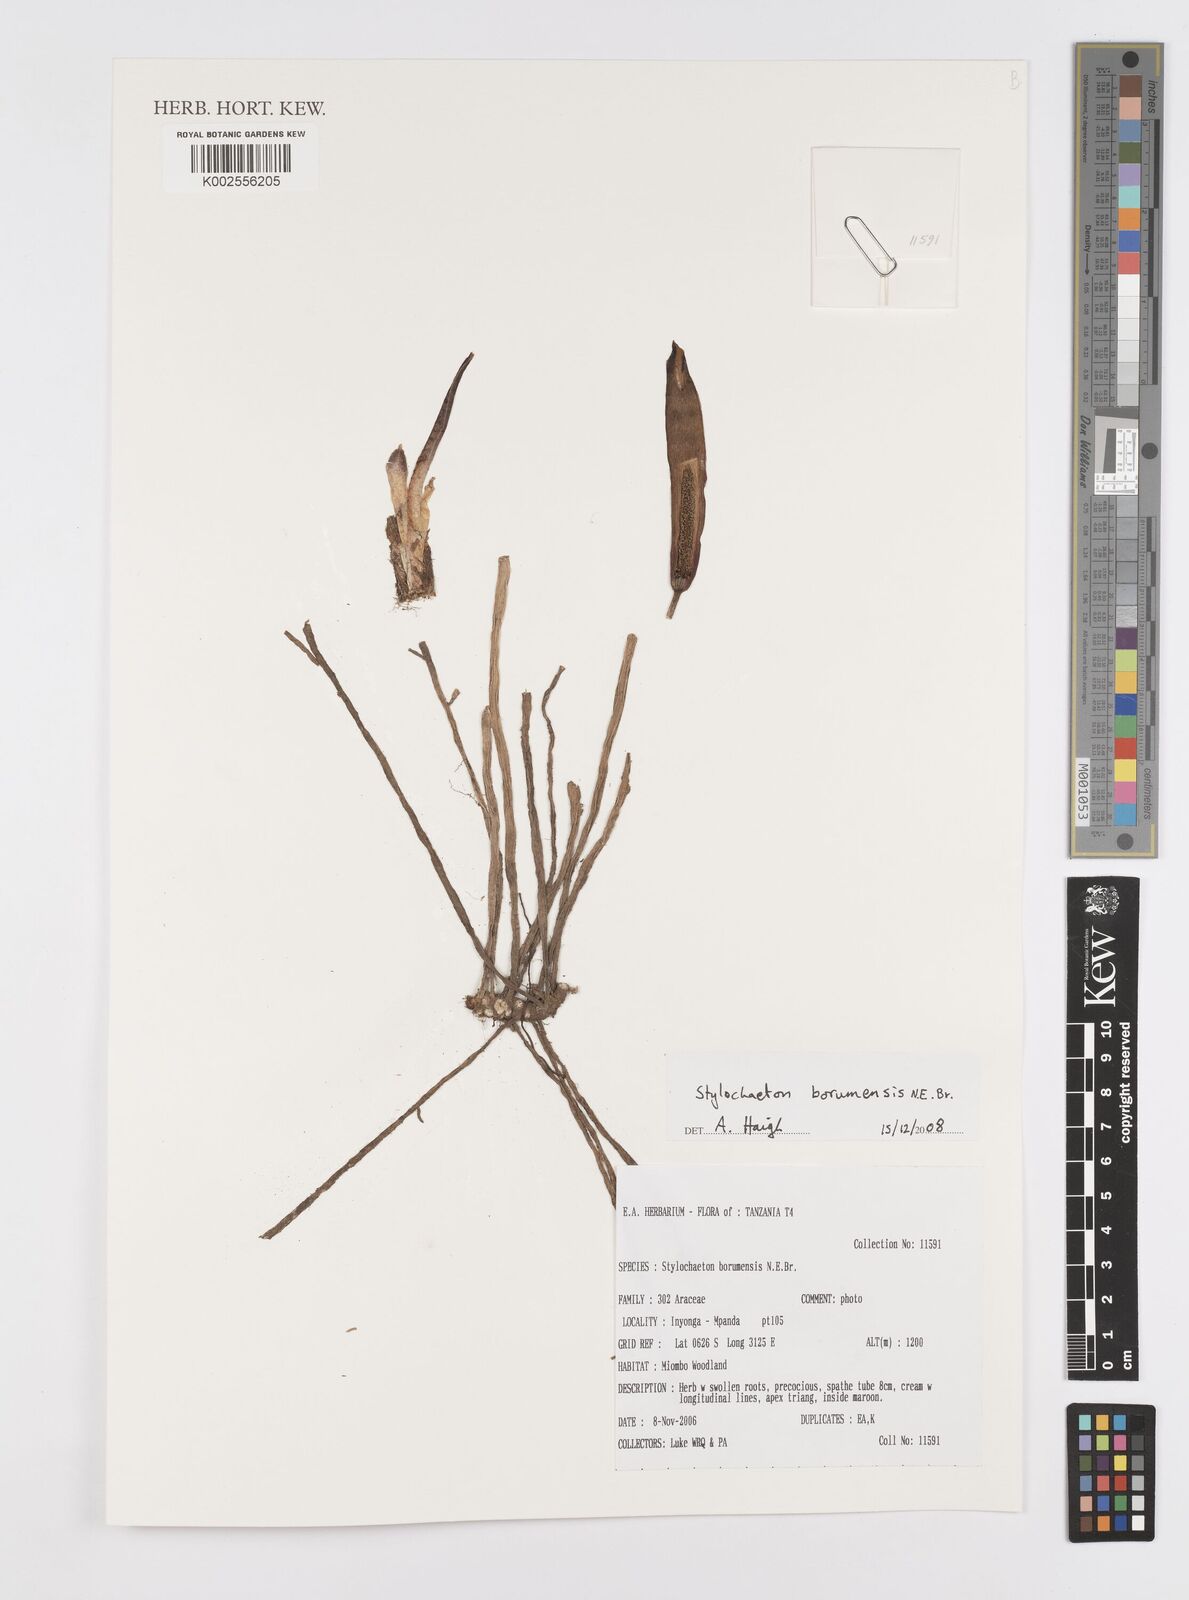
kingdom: Plantae
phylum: Tracheophyta
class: Liliopsida
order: Alismatales
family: Araceae
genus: Stylochaeton
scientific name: Stylochaeton borumense
